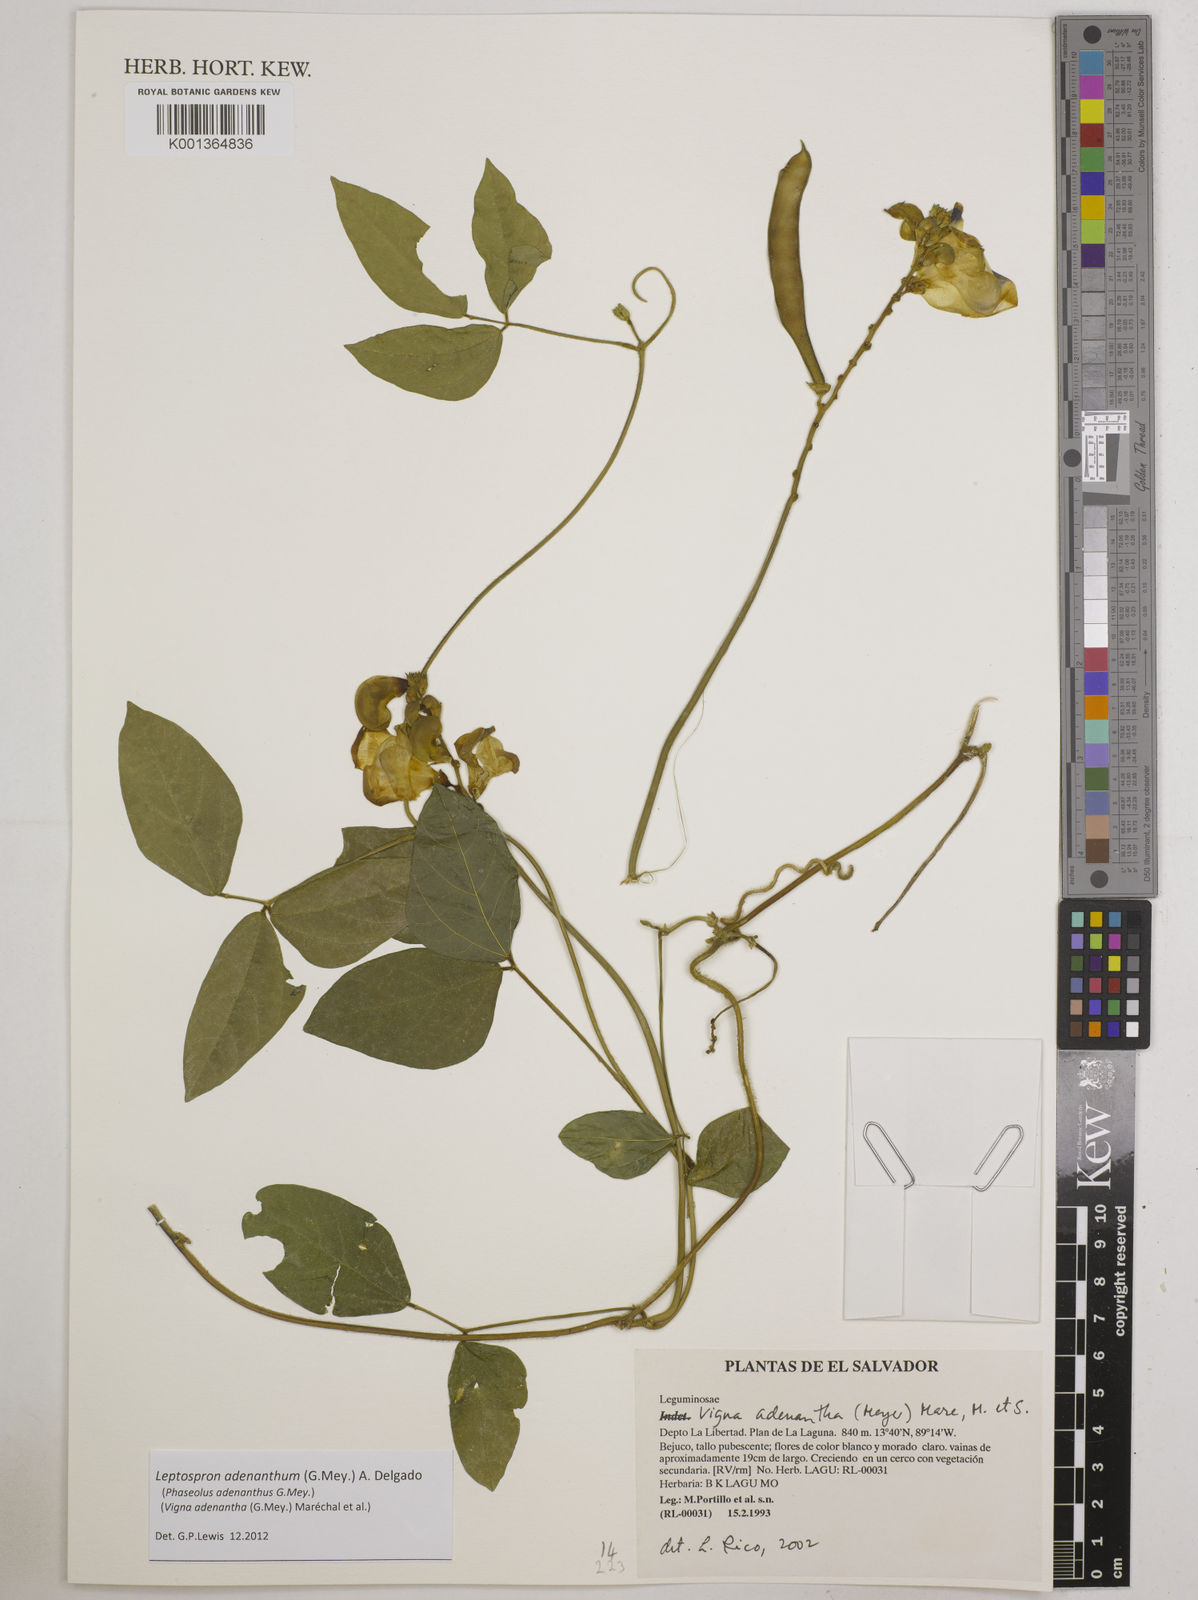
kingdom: Plantae
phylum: Tracheophyta
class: Magnoliopsida
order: Fabales
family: Fabaceae
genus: Leptospron
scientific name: Leptospron adenanthum
